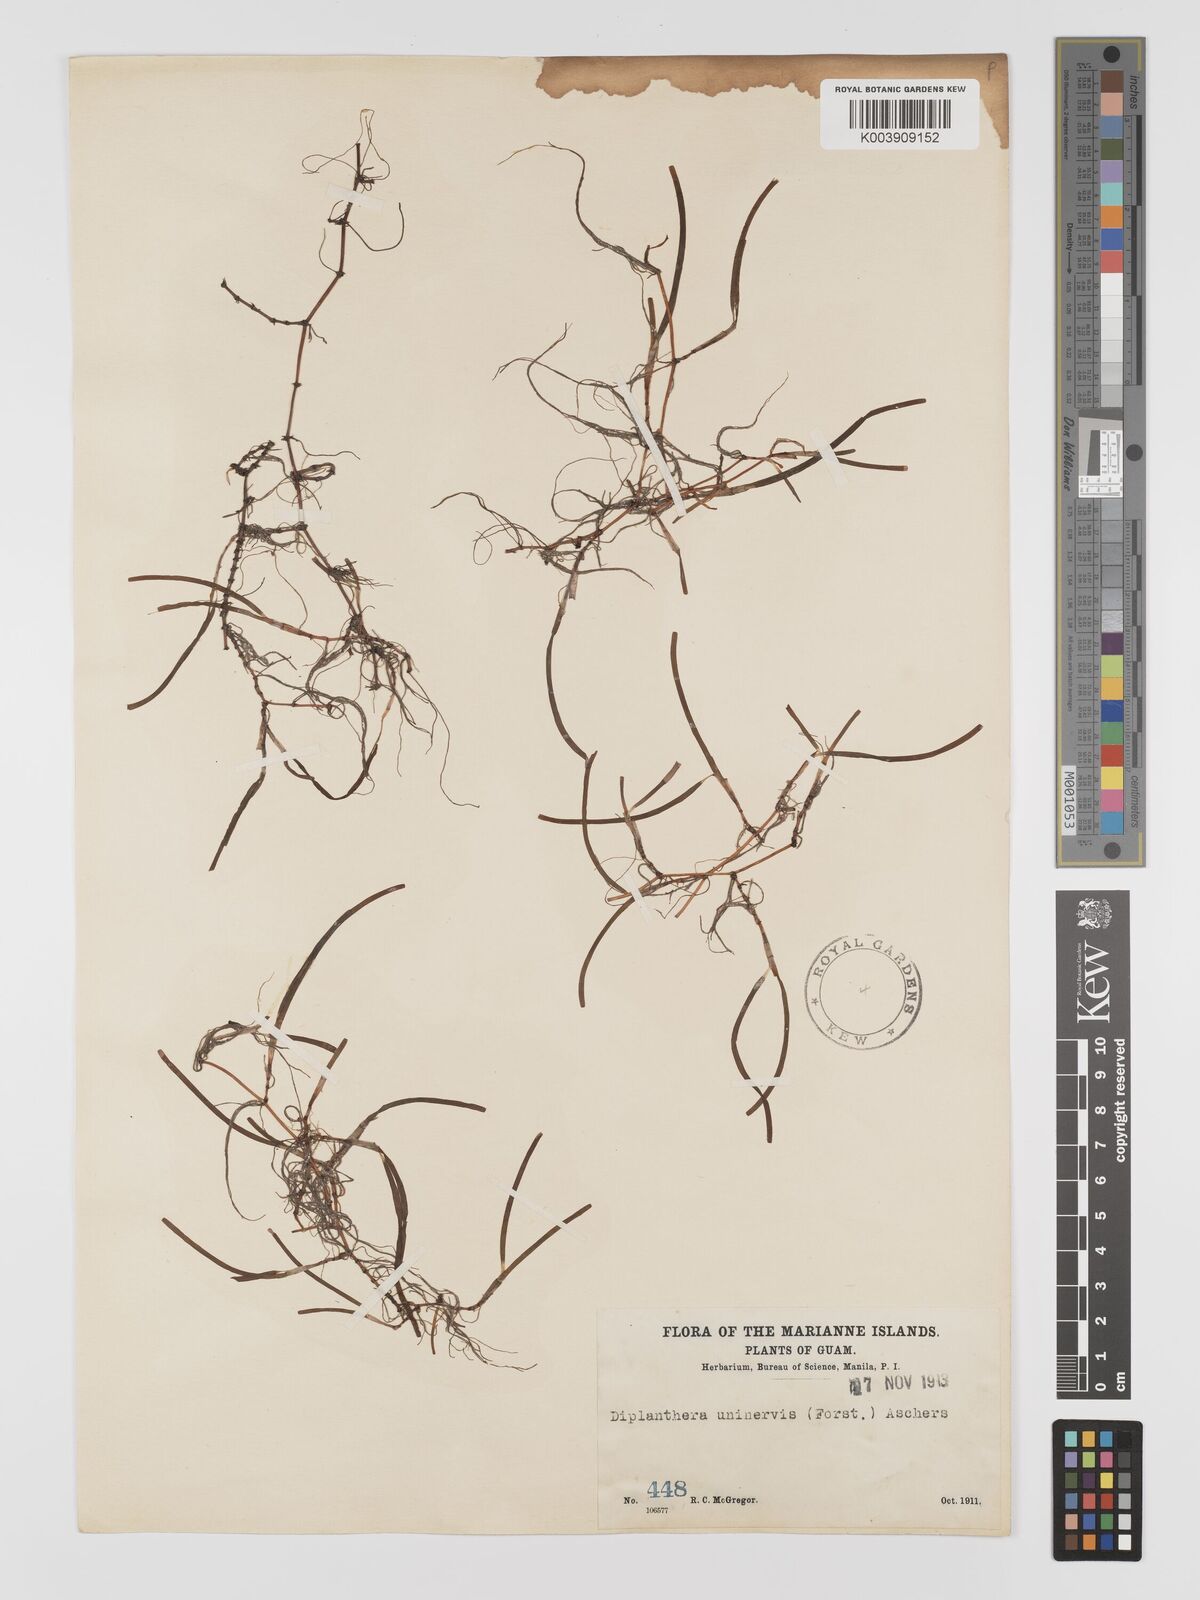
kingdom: Plantae
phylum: Tracheophyta
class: Liliopsida
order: Alismatales
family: Cymodoceaceae
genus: Halodule
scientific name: Halodule uninervis
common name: Narrowleaf seagrass
